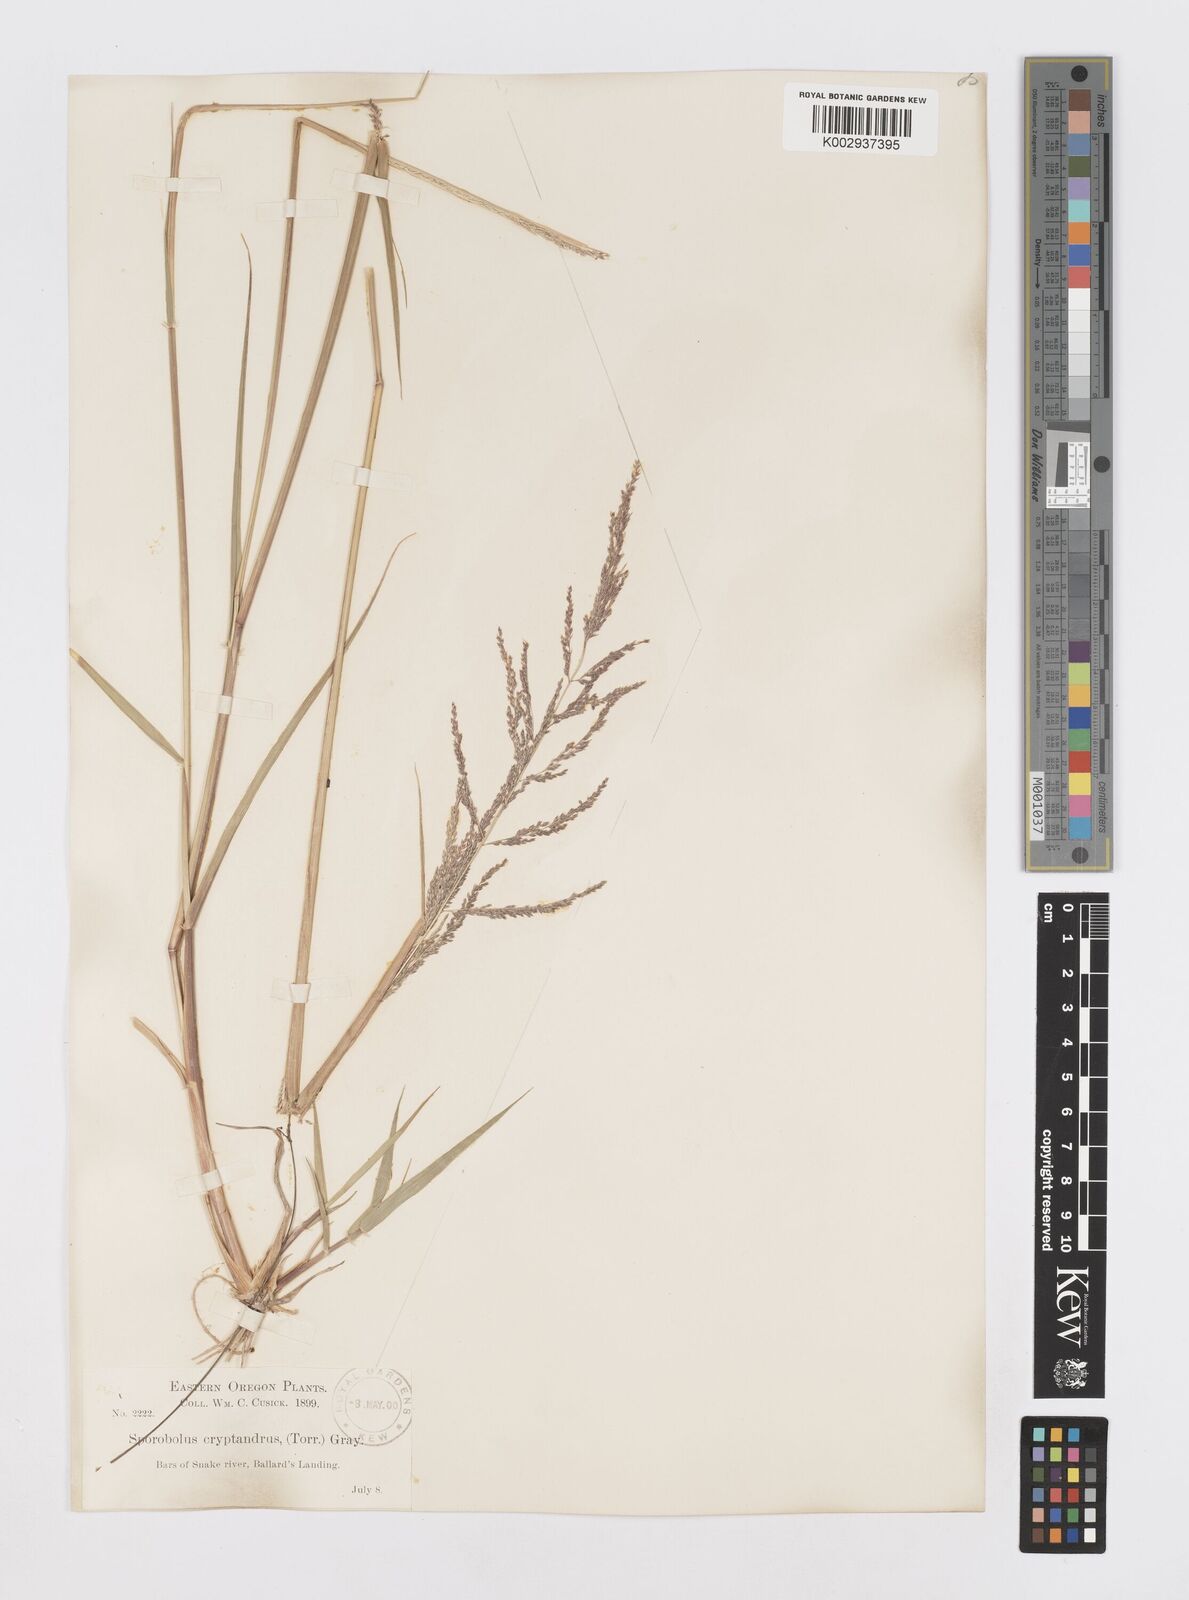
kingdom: Plantae
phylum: Tracheophyta
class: Liliopsida
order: Poales
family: Poaceae
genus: Sporobolus
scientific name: Sporobolus cryptandrus
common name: Sand dropseed
